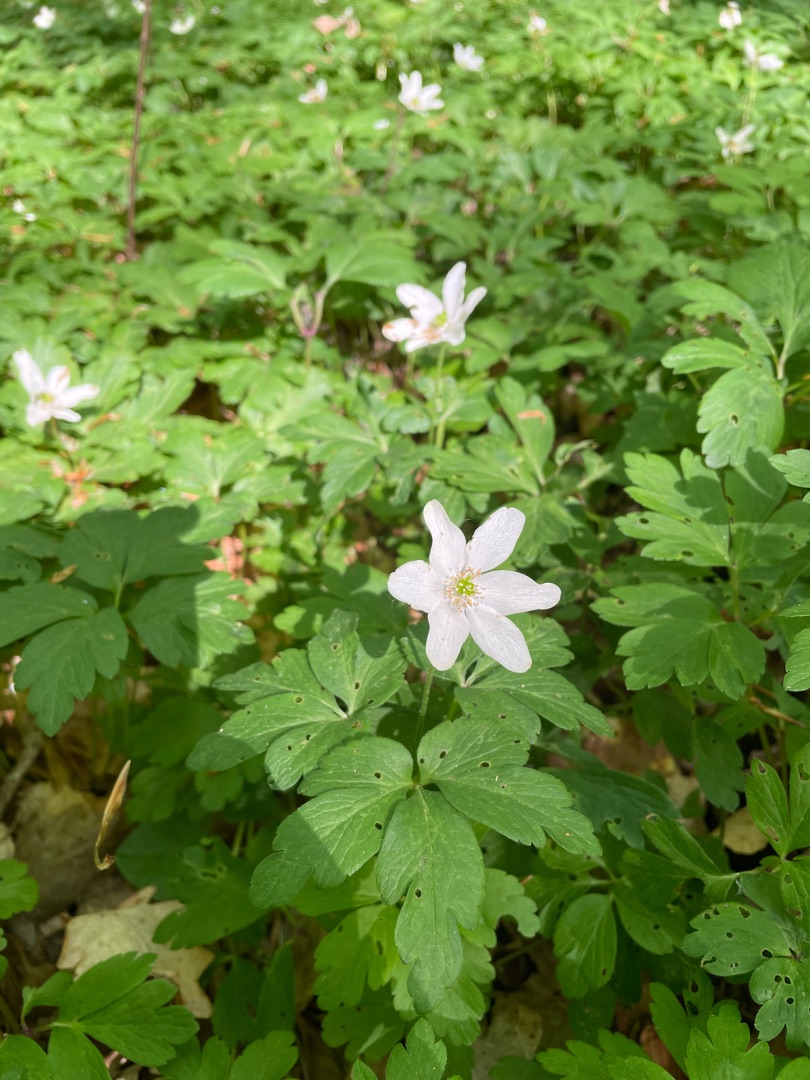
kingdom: Plantae
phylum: Tracheophyta
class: Magnoliopsida
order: Ranunculales
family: Ranunculaceae
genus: Anemone
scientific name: Anemone nemorosa
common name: Hvid anemone
